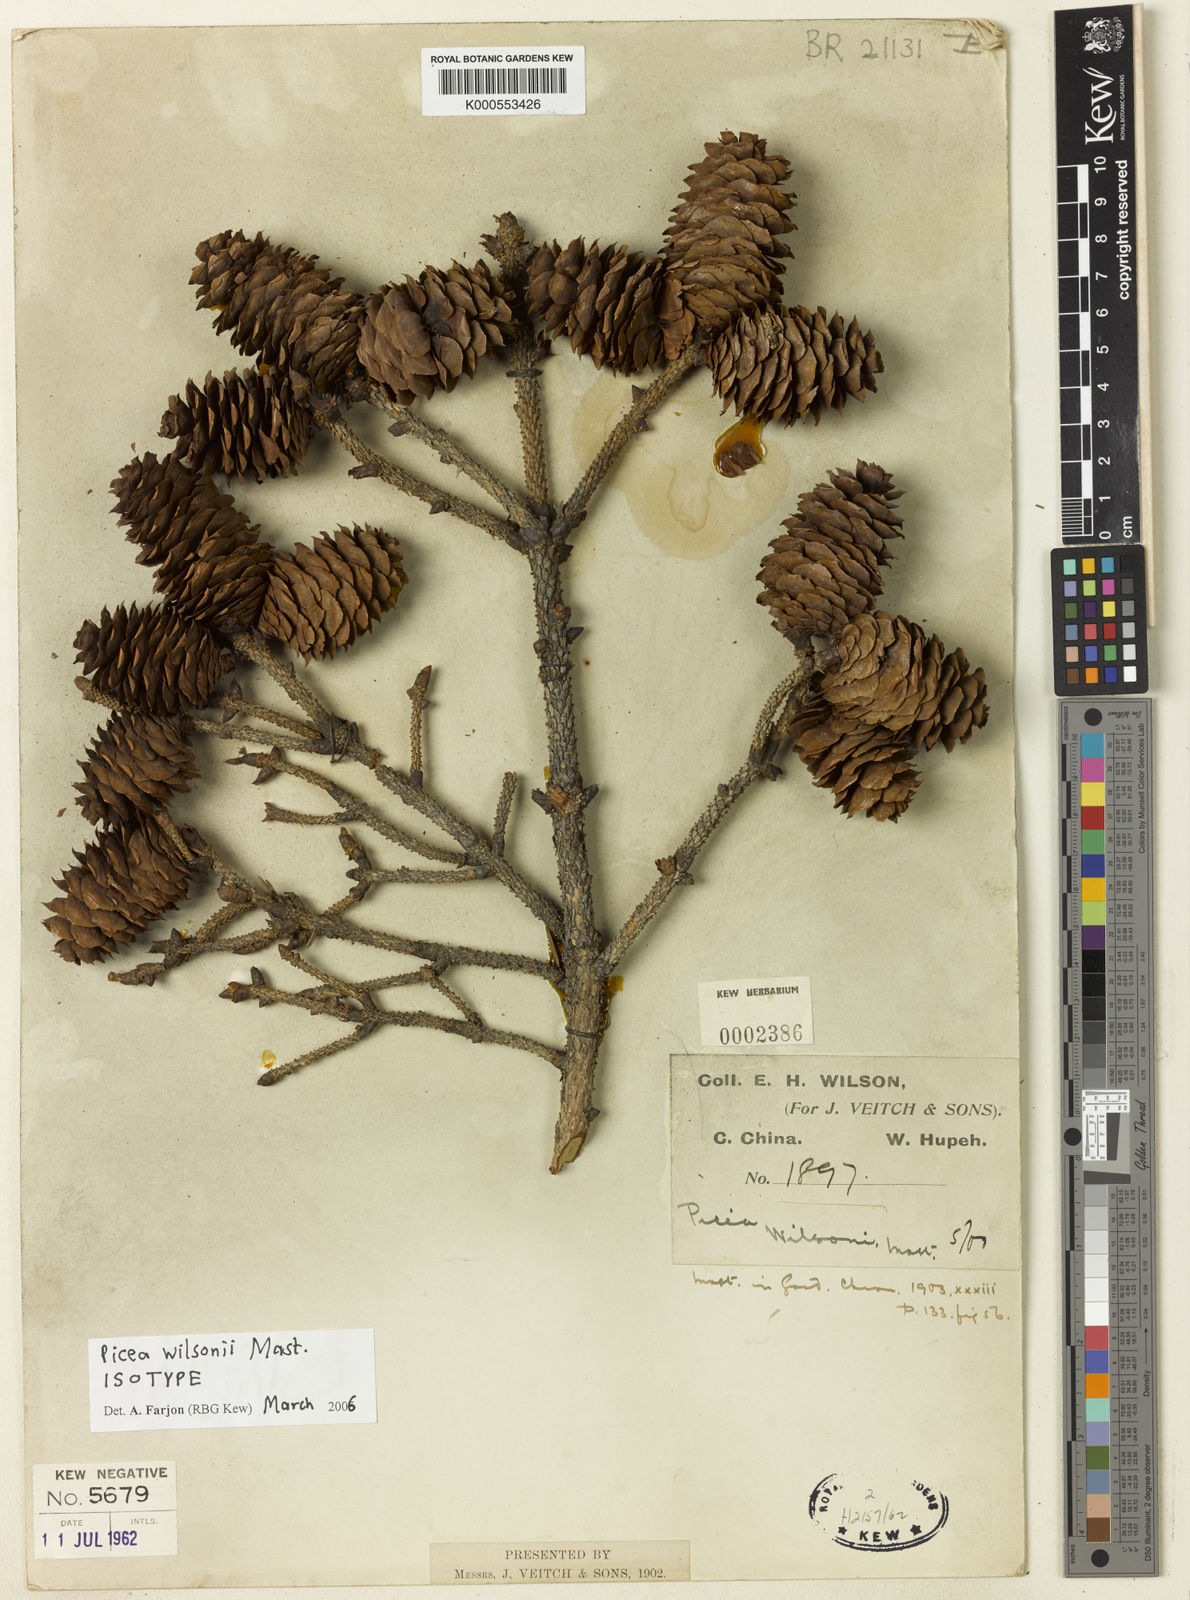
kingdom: Plantae
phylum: Tracheophyta
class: Pinopsida
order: Pinales
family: Pinaceae
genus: Picea
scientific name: Picea wilsonii
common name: Wilson spruce
